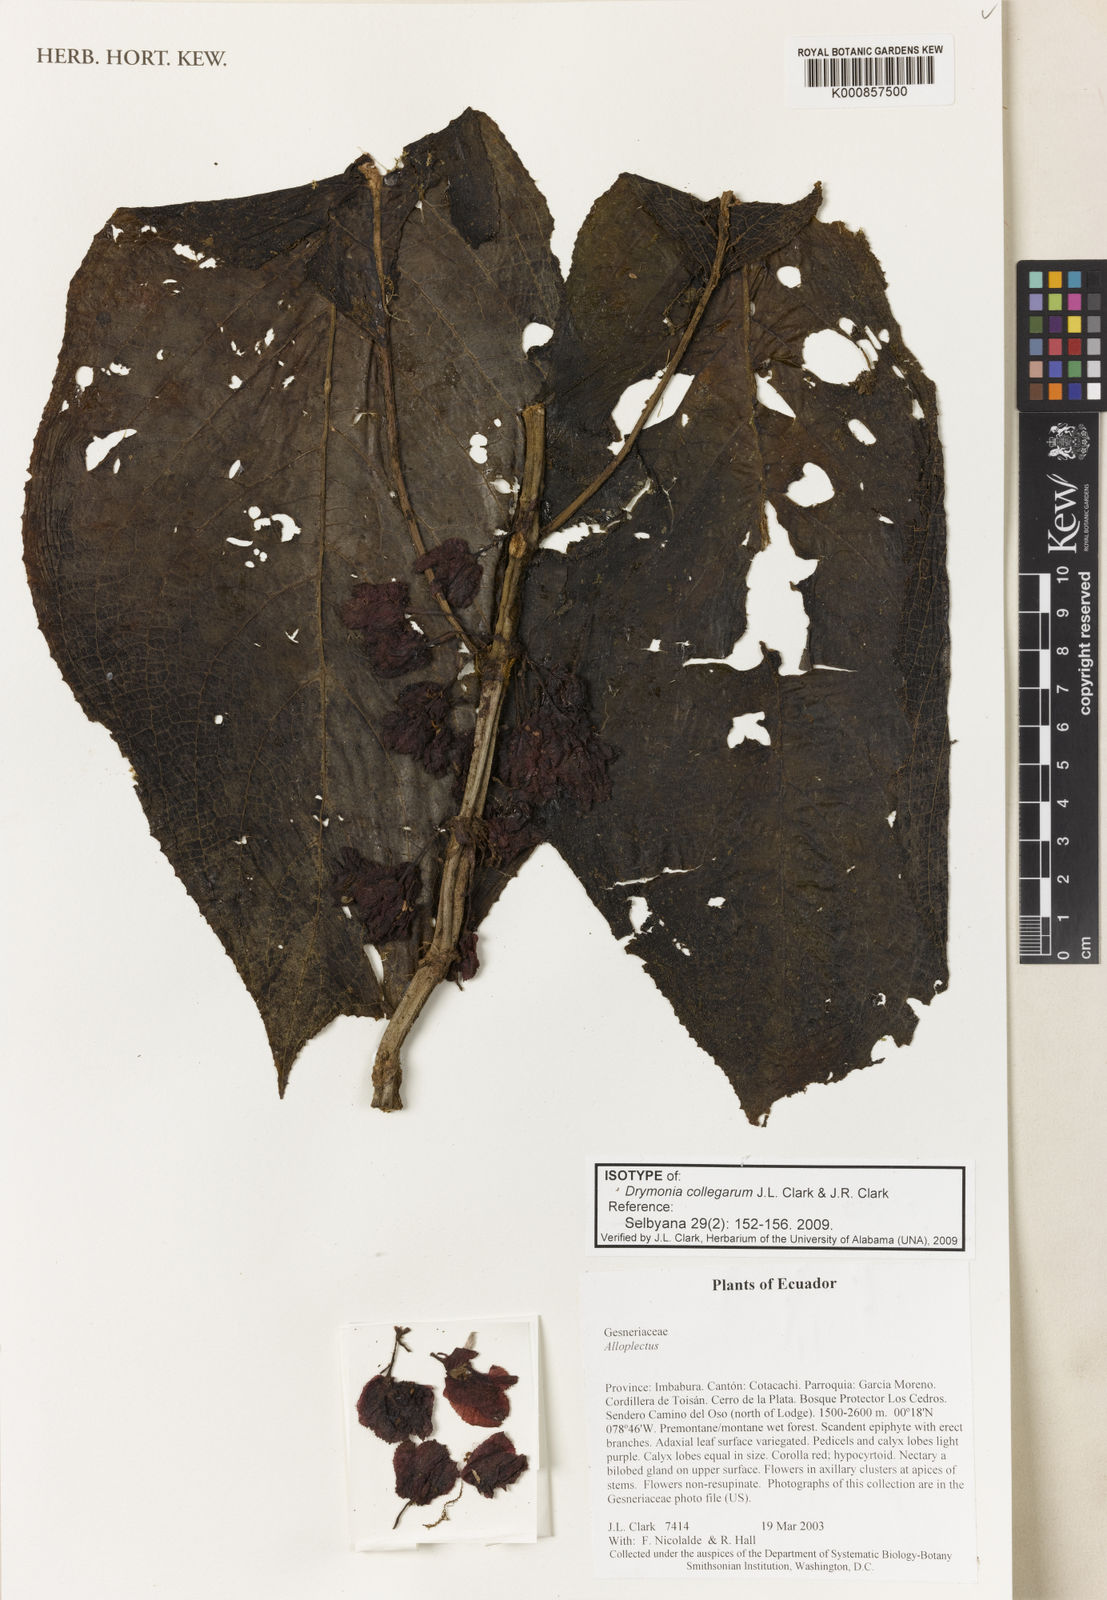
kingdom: Plantae
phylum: Tracheophyta
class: Magnoliopsida
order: Lamiales
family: Gesneriaceae
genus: Drymonia
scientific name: Drymonia collegarum
